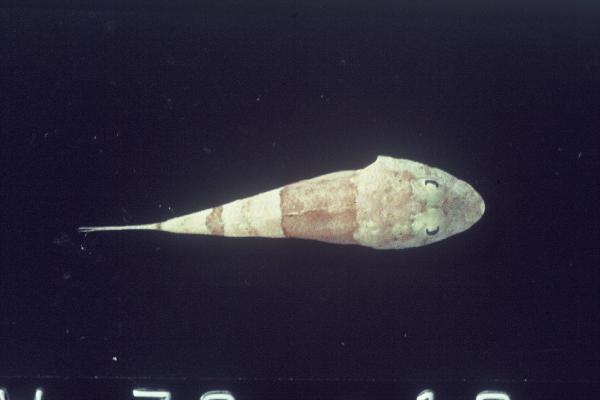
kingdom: Animalia
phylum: Chordata
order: Scorpaeniformes
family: Platycephalidae
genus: Onigocia
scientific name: Onigocia
